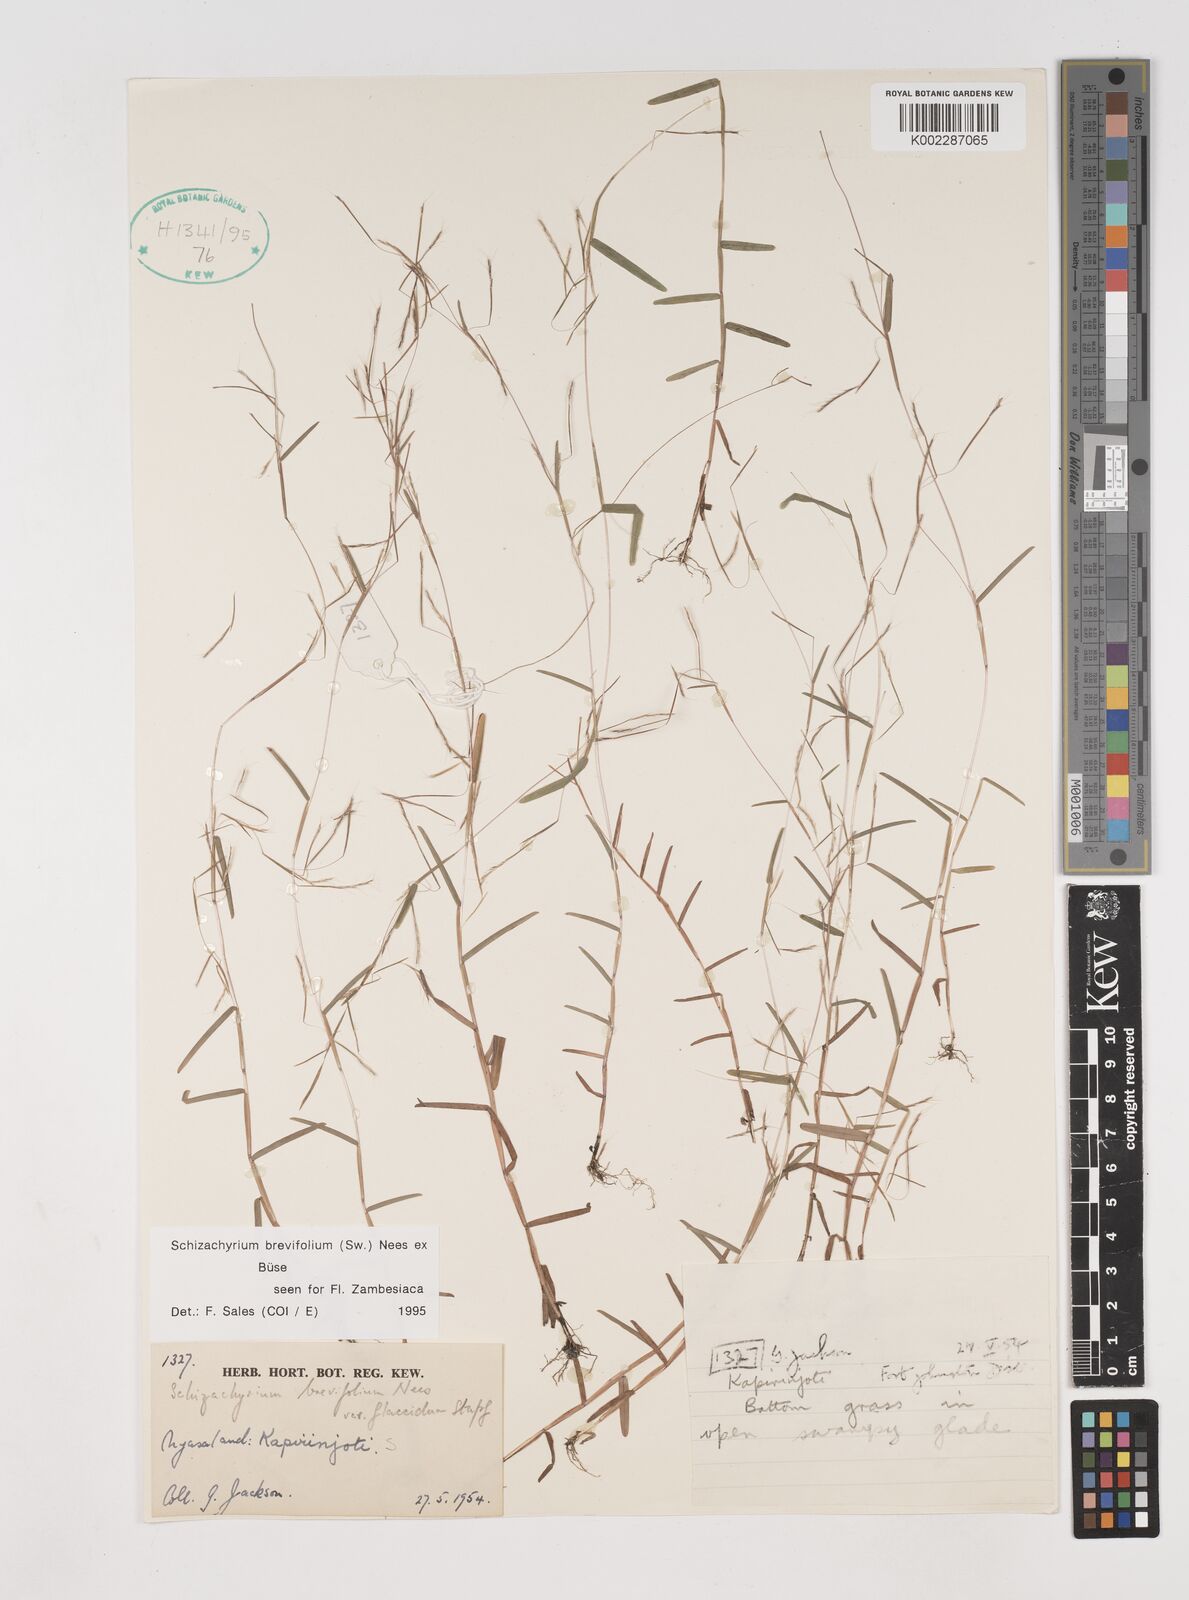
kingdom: Plantae
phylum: Tracheophyta
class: Liliopsida
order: Poales
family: Poaceae
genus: Schizachyrium
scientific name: Schizachyrium brevifolium
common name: Serillo dulce
